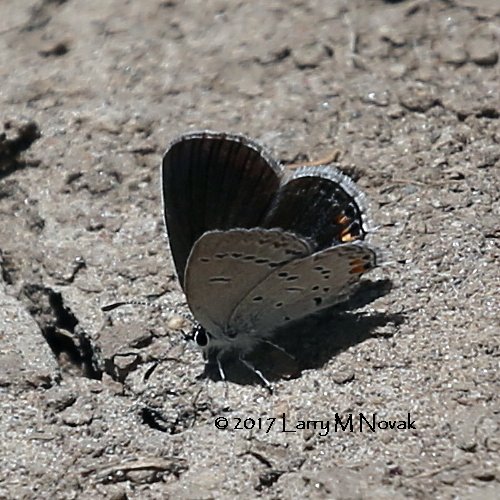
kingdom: Animalia
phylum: Arthropoda
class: Insecta
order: Lepidoptera
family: Lycaenidae
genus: Elkalyce
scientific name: Elkalyce comyntas
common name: Eastern Tailed-Blue
